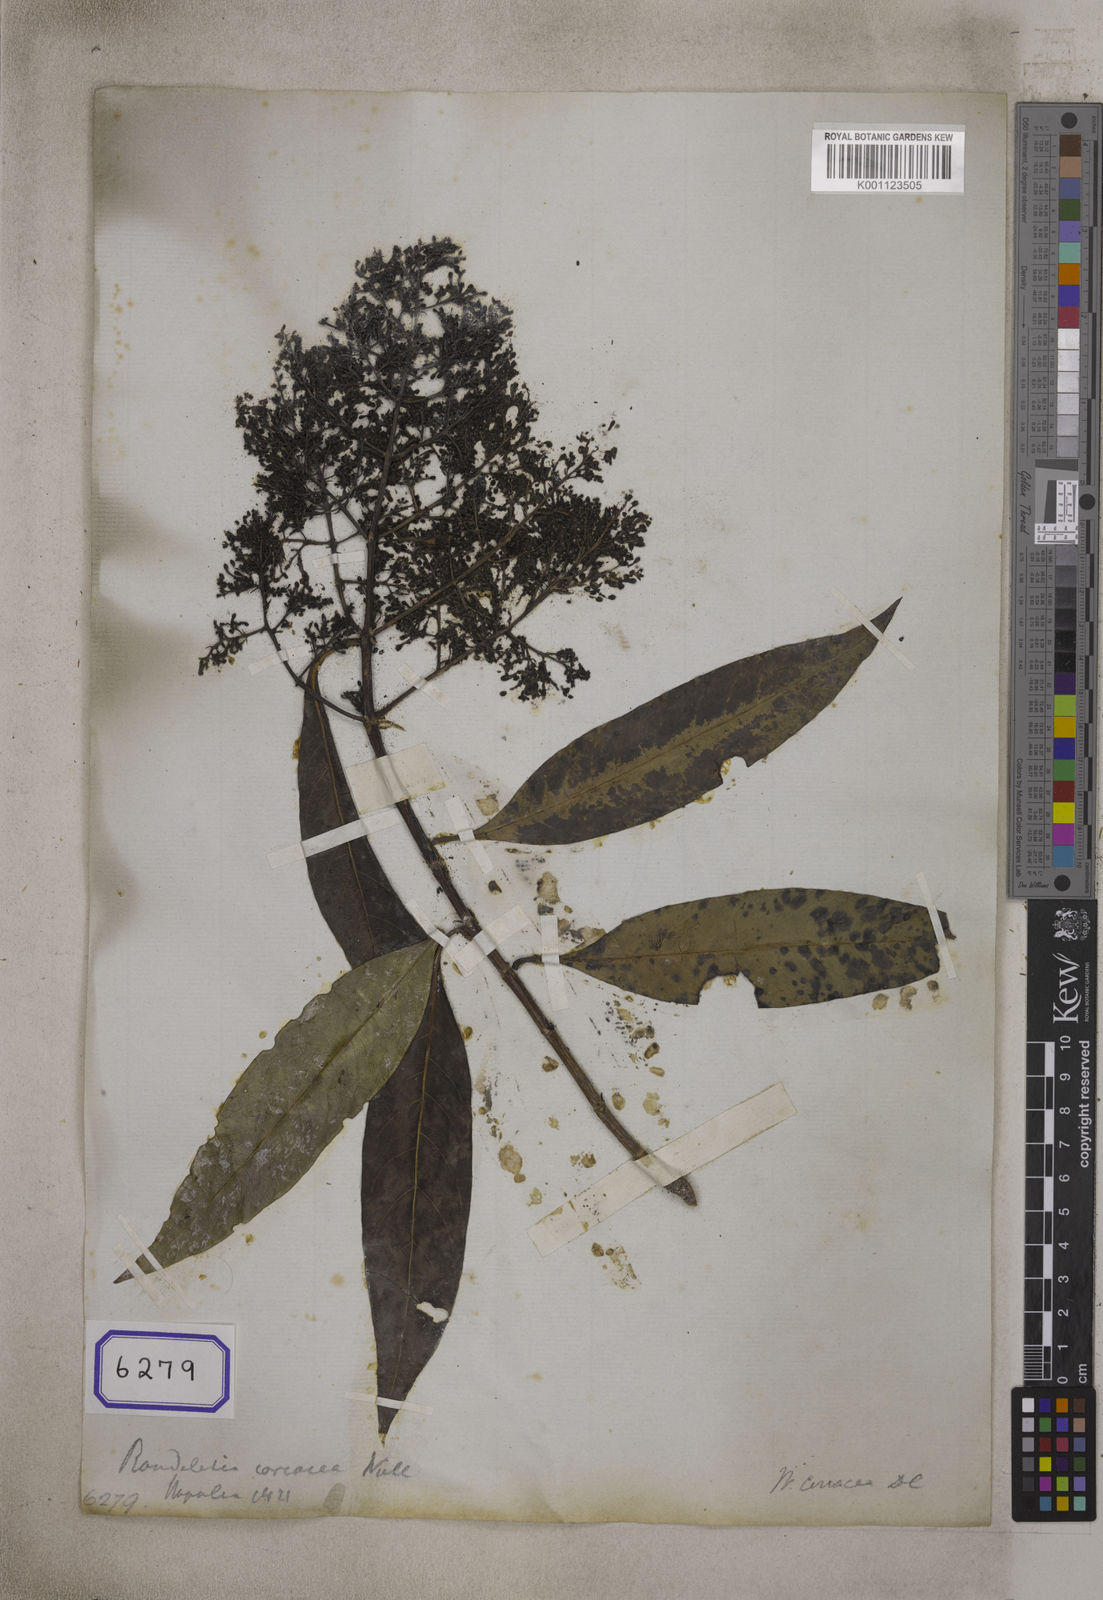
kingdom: Plantae
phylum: Tracheophyta
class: Magnoliopsida
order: Gentianales
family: Rubiaceae
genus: Wendlandia
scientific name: Wendlandia coriacea
